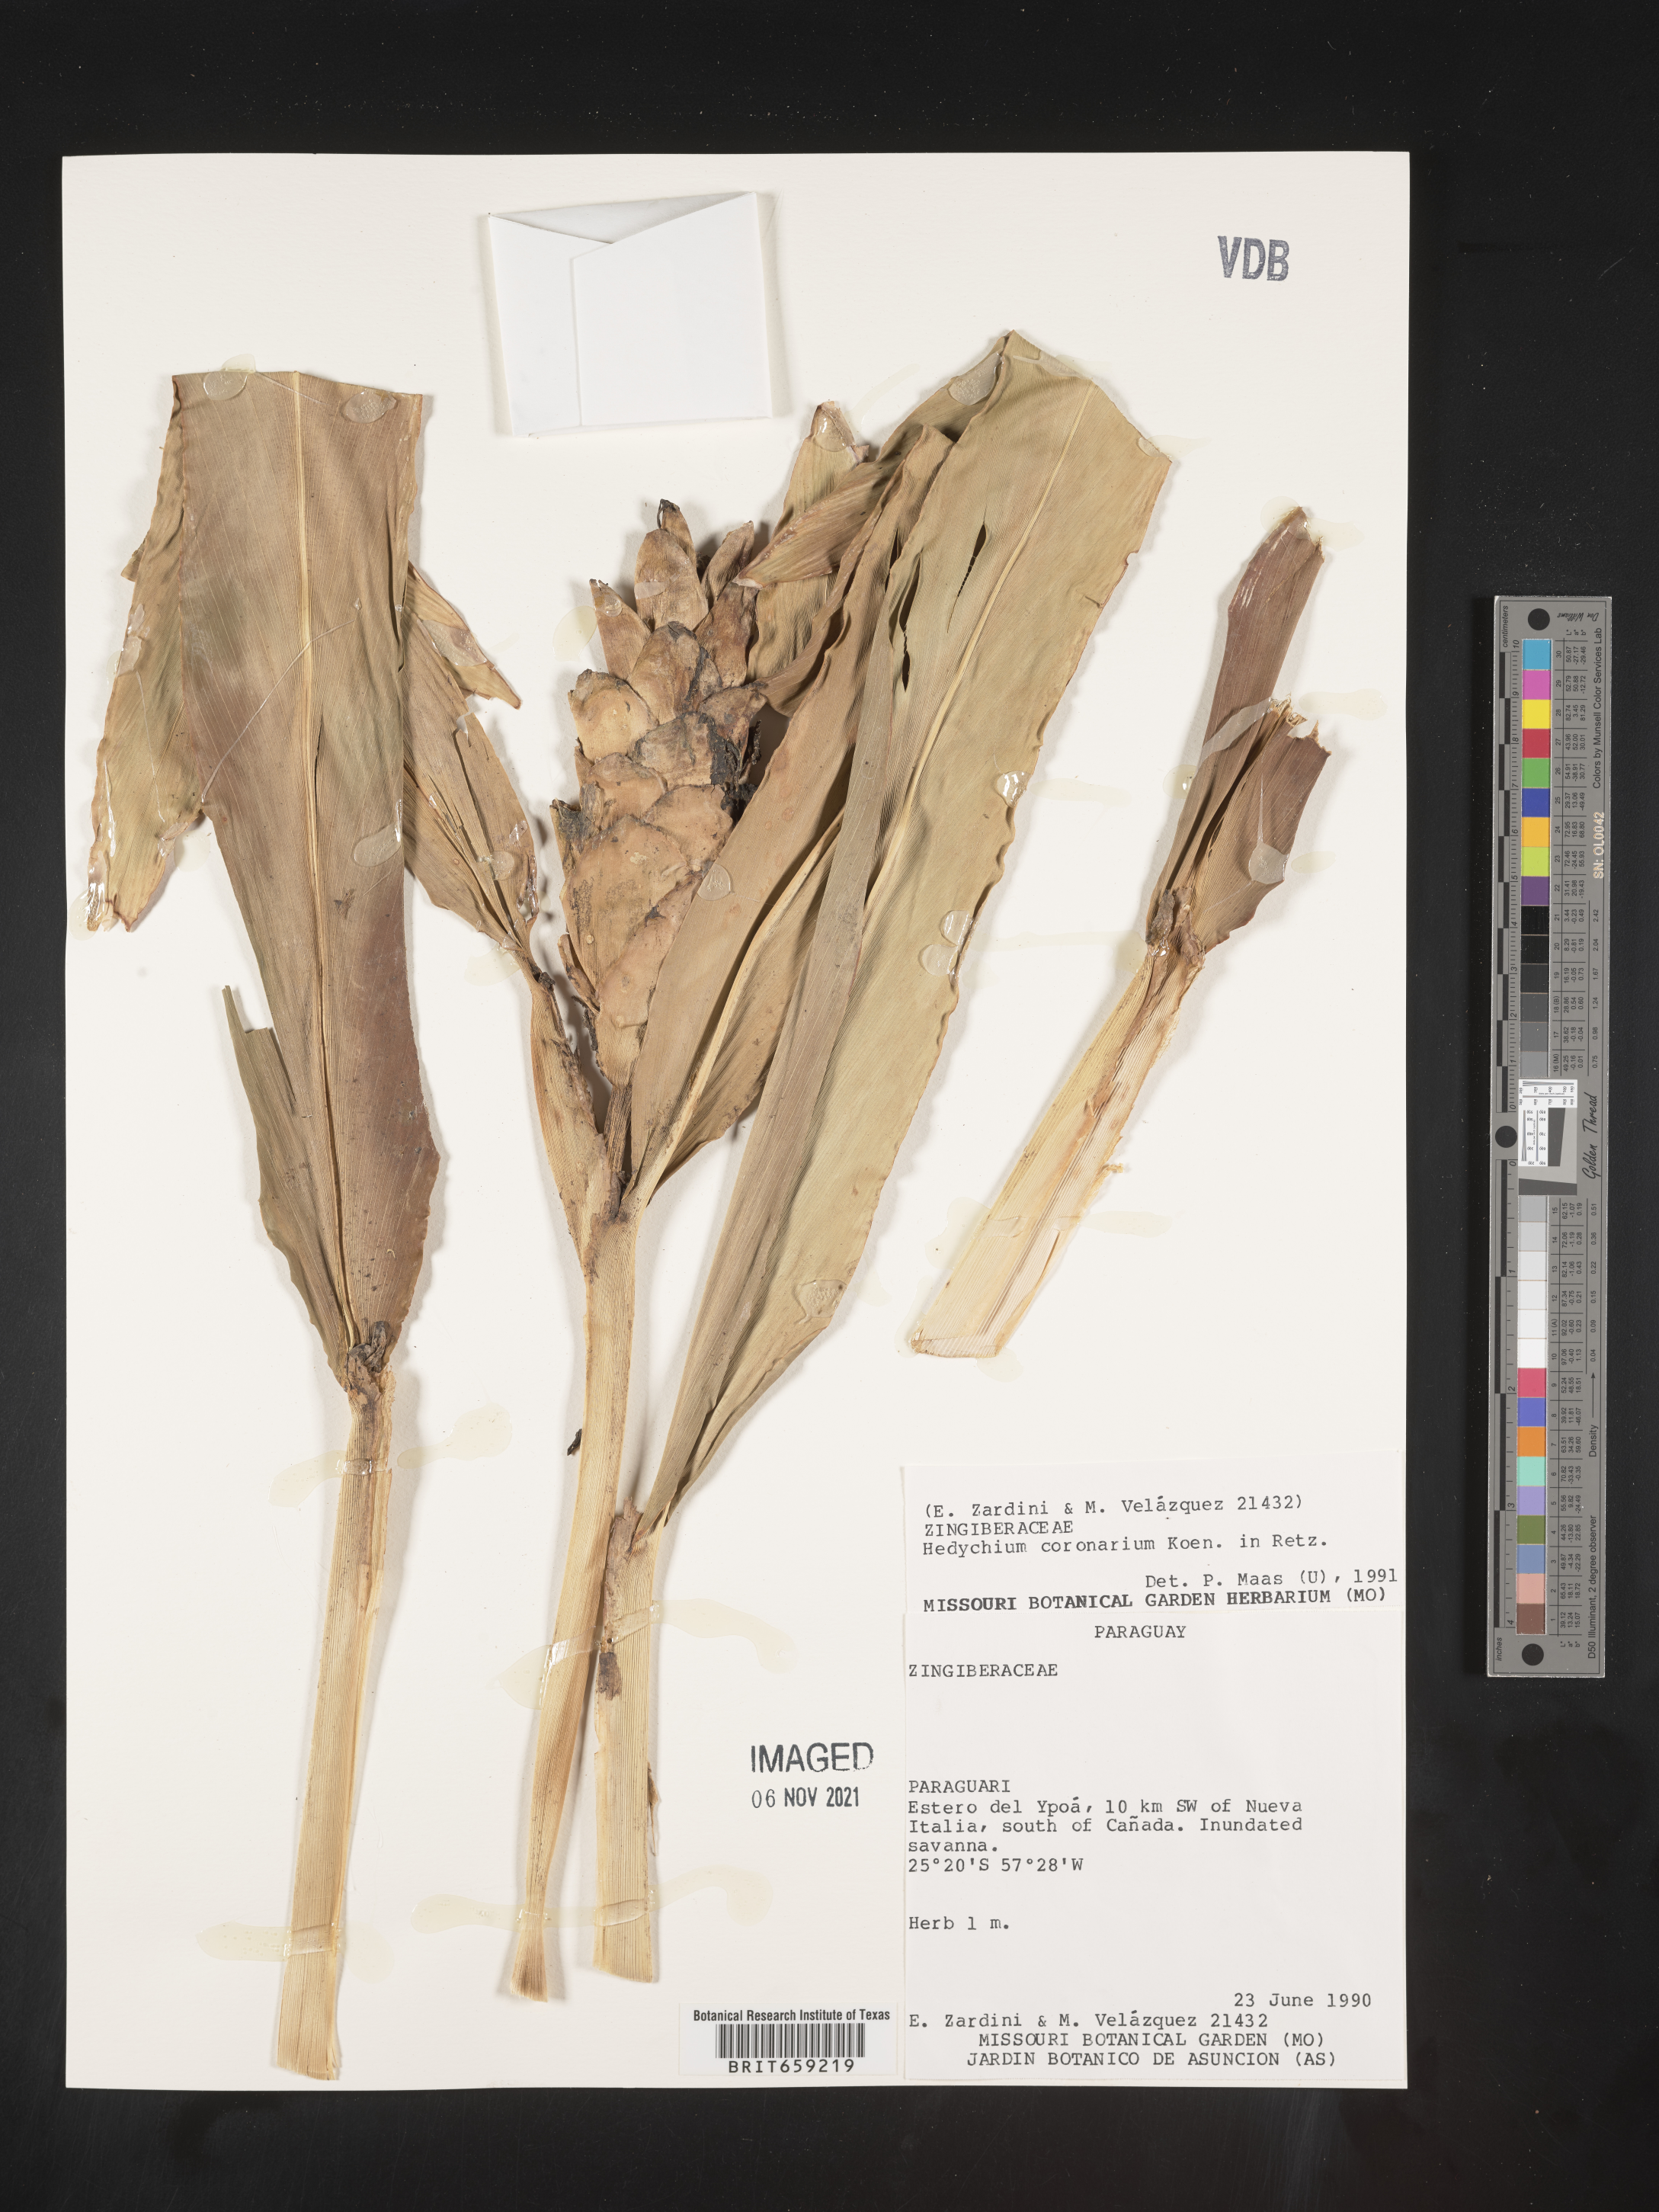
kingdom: Plantae
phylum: Tracheophyta
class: Liliopsida
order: Zingiberales
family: Zingiberaceae
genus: Hedychium
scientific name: Hedychium
